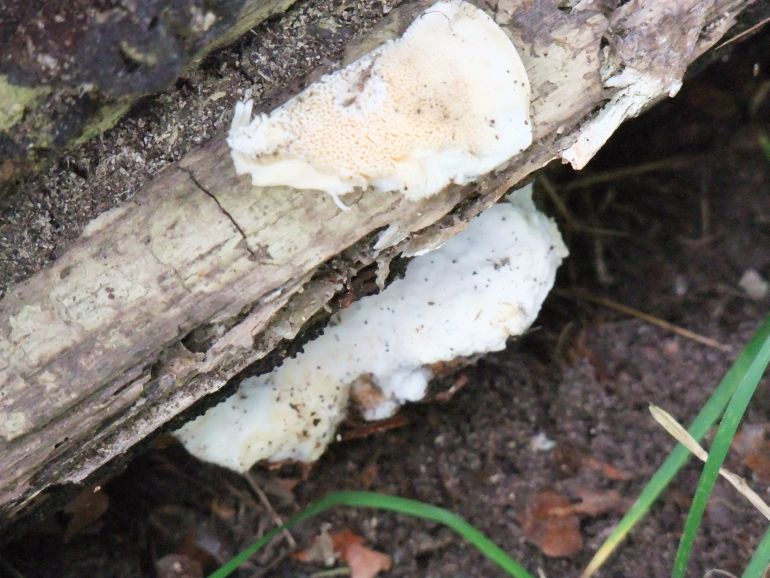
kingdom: Fungi
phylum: Basidiomycota
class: Agaricomycetes
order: Polyporales
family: Cerrenaceae
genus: Pseudospongipellis
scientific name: Pseudospongipellis delectans
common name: labyrint-skumporesvamp
